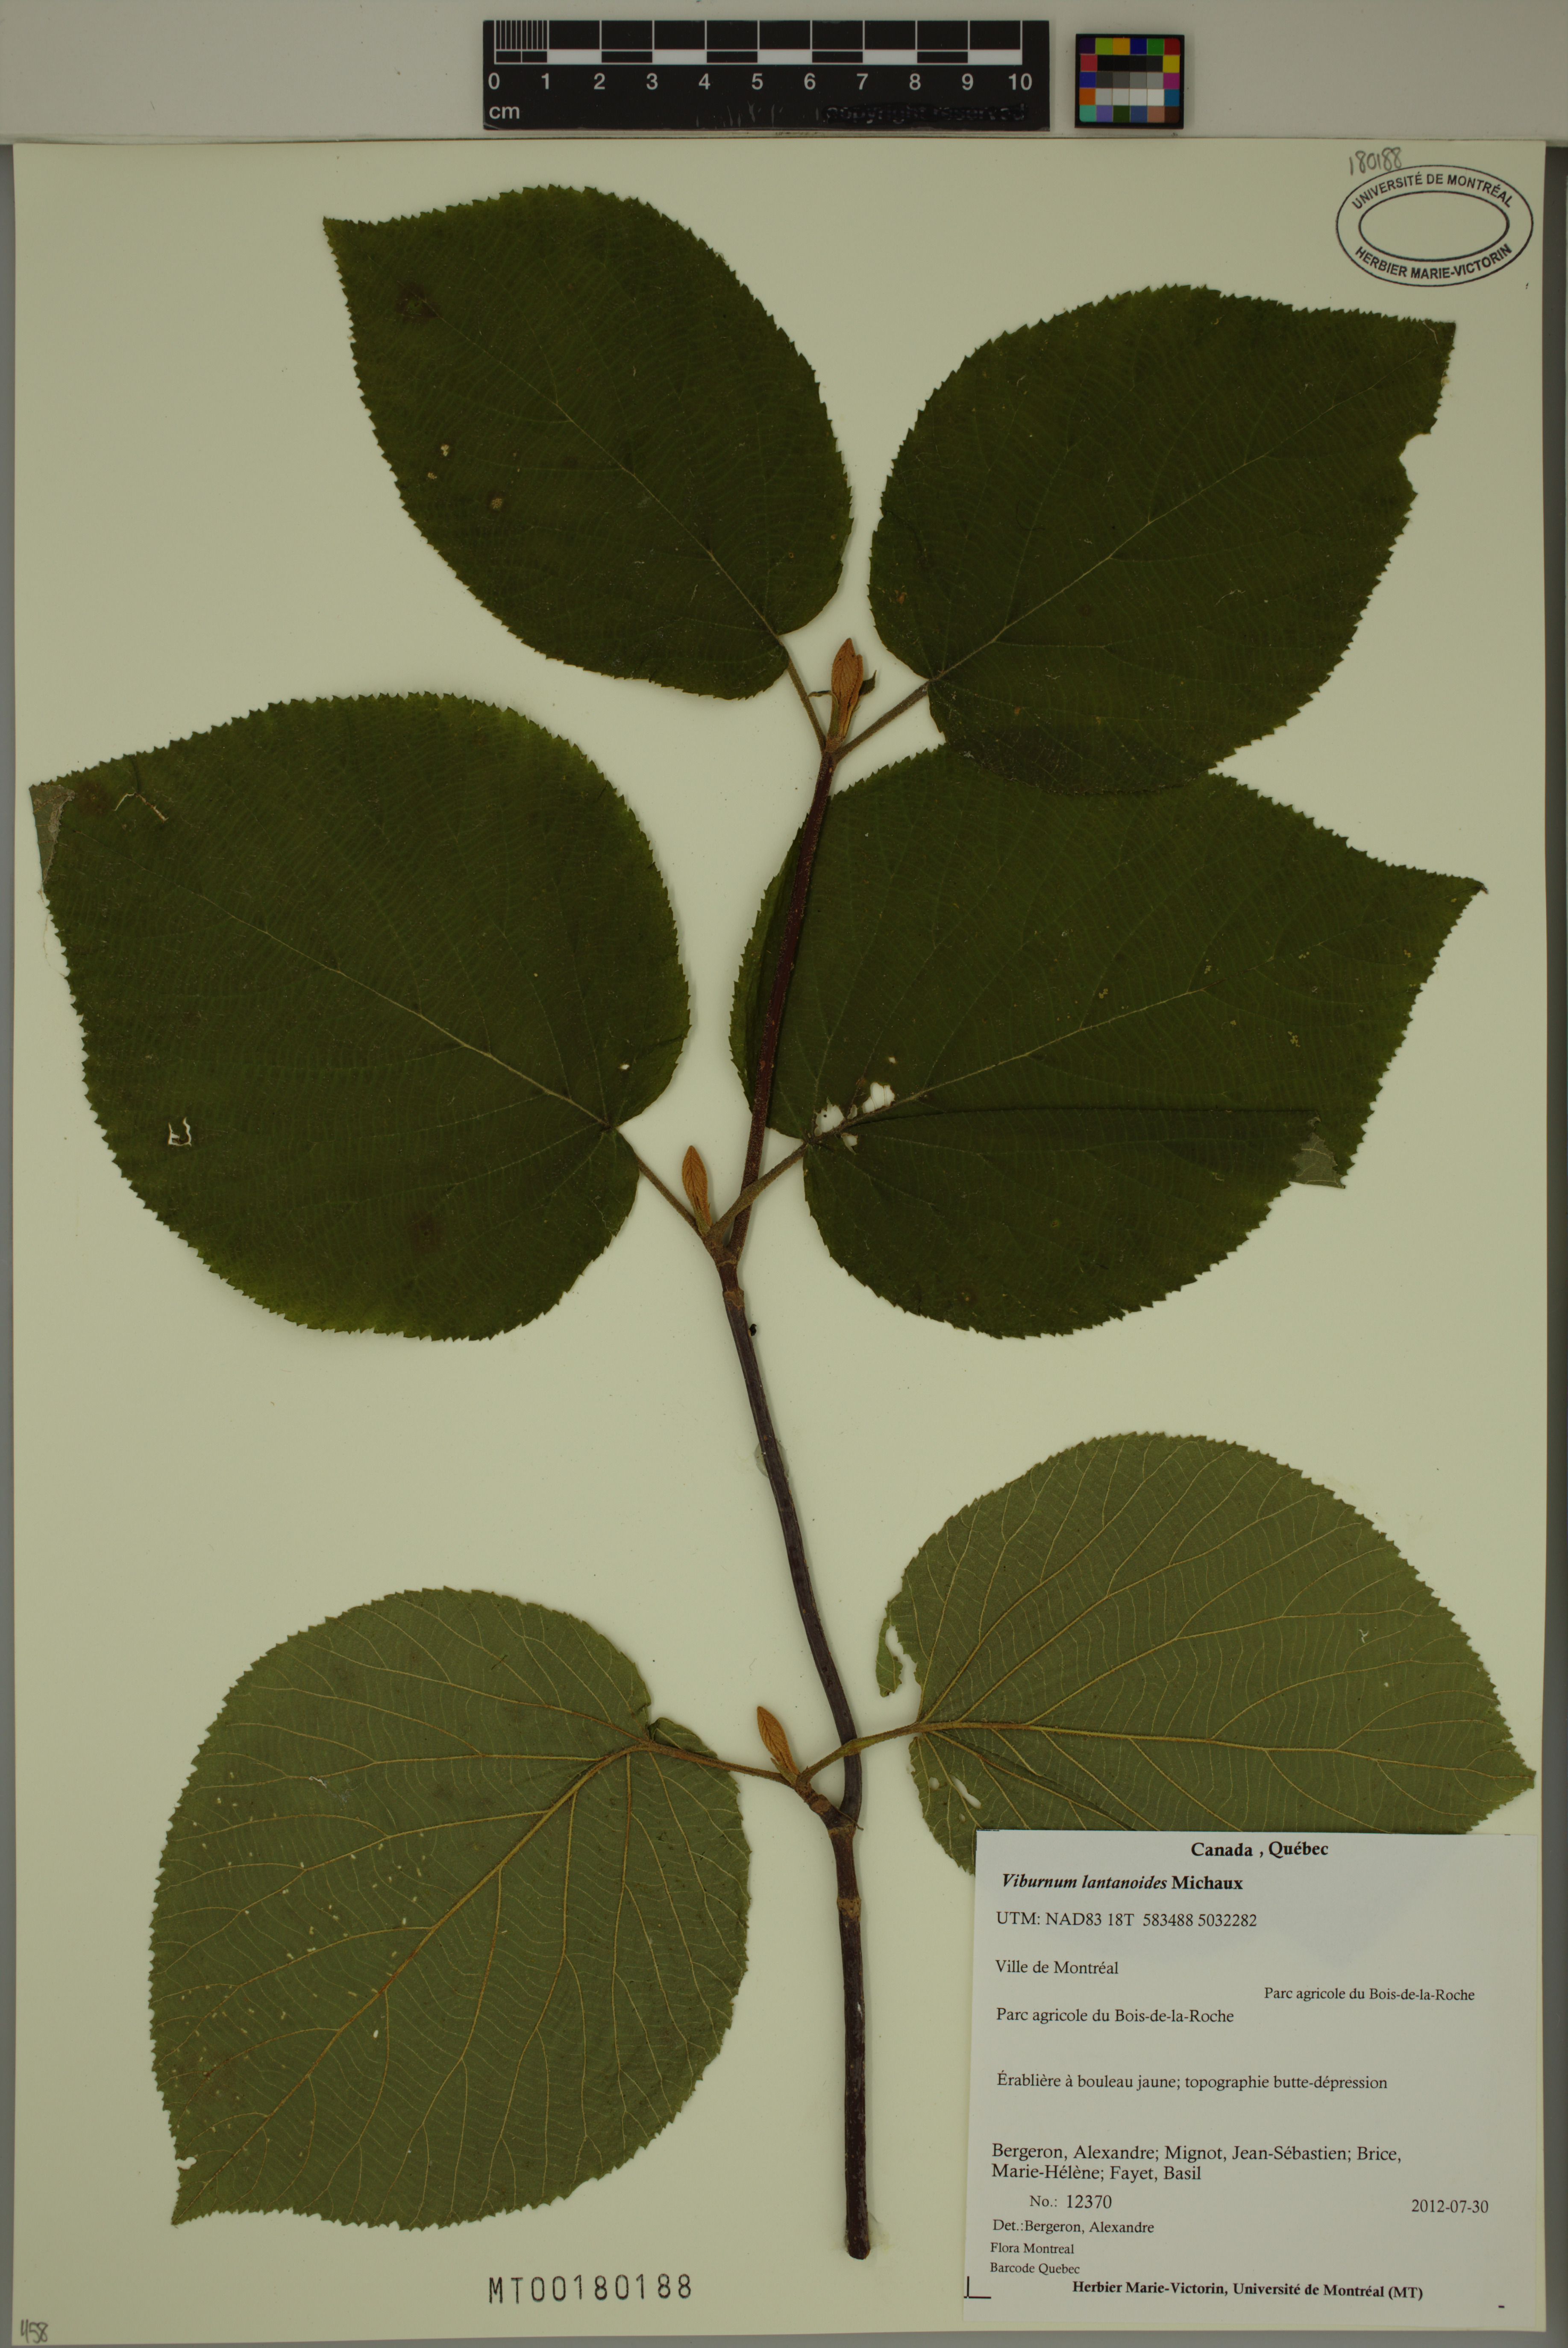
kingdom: Plantae
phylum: Tracheophyta
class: Magnoliopsida
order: Dipsacales
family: Viburnaceae
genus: Viburnum
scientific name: Viburnum lantanoides
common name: Hobblebush
